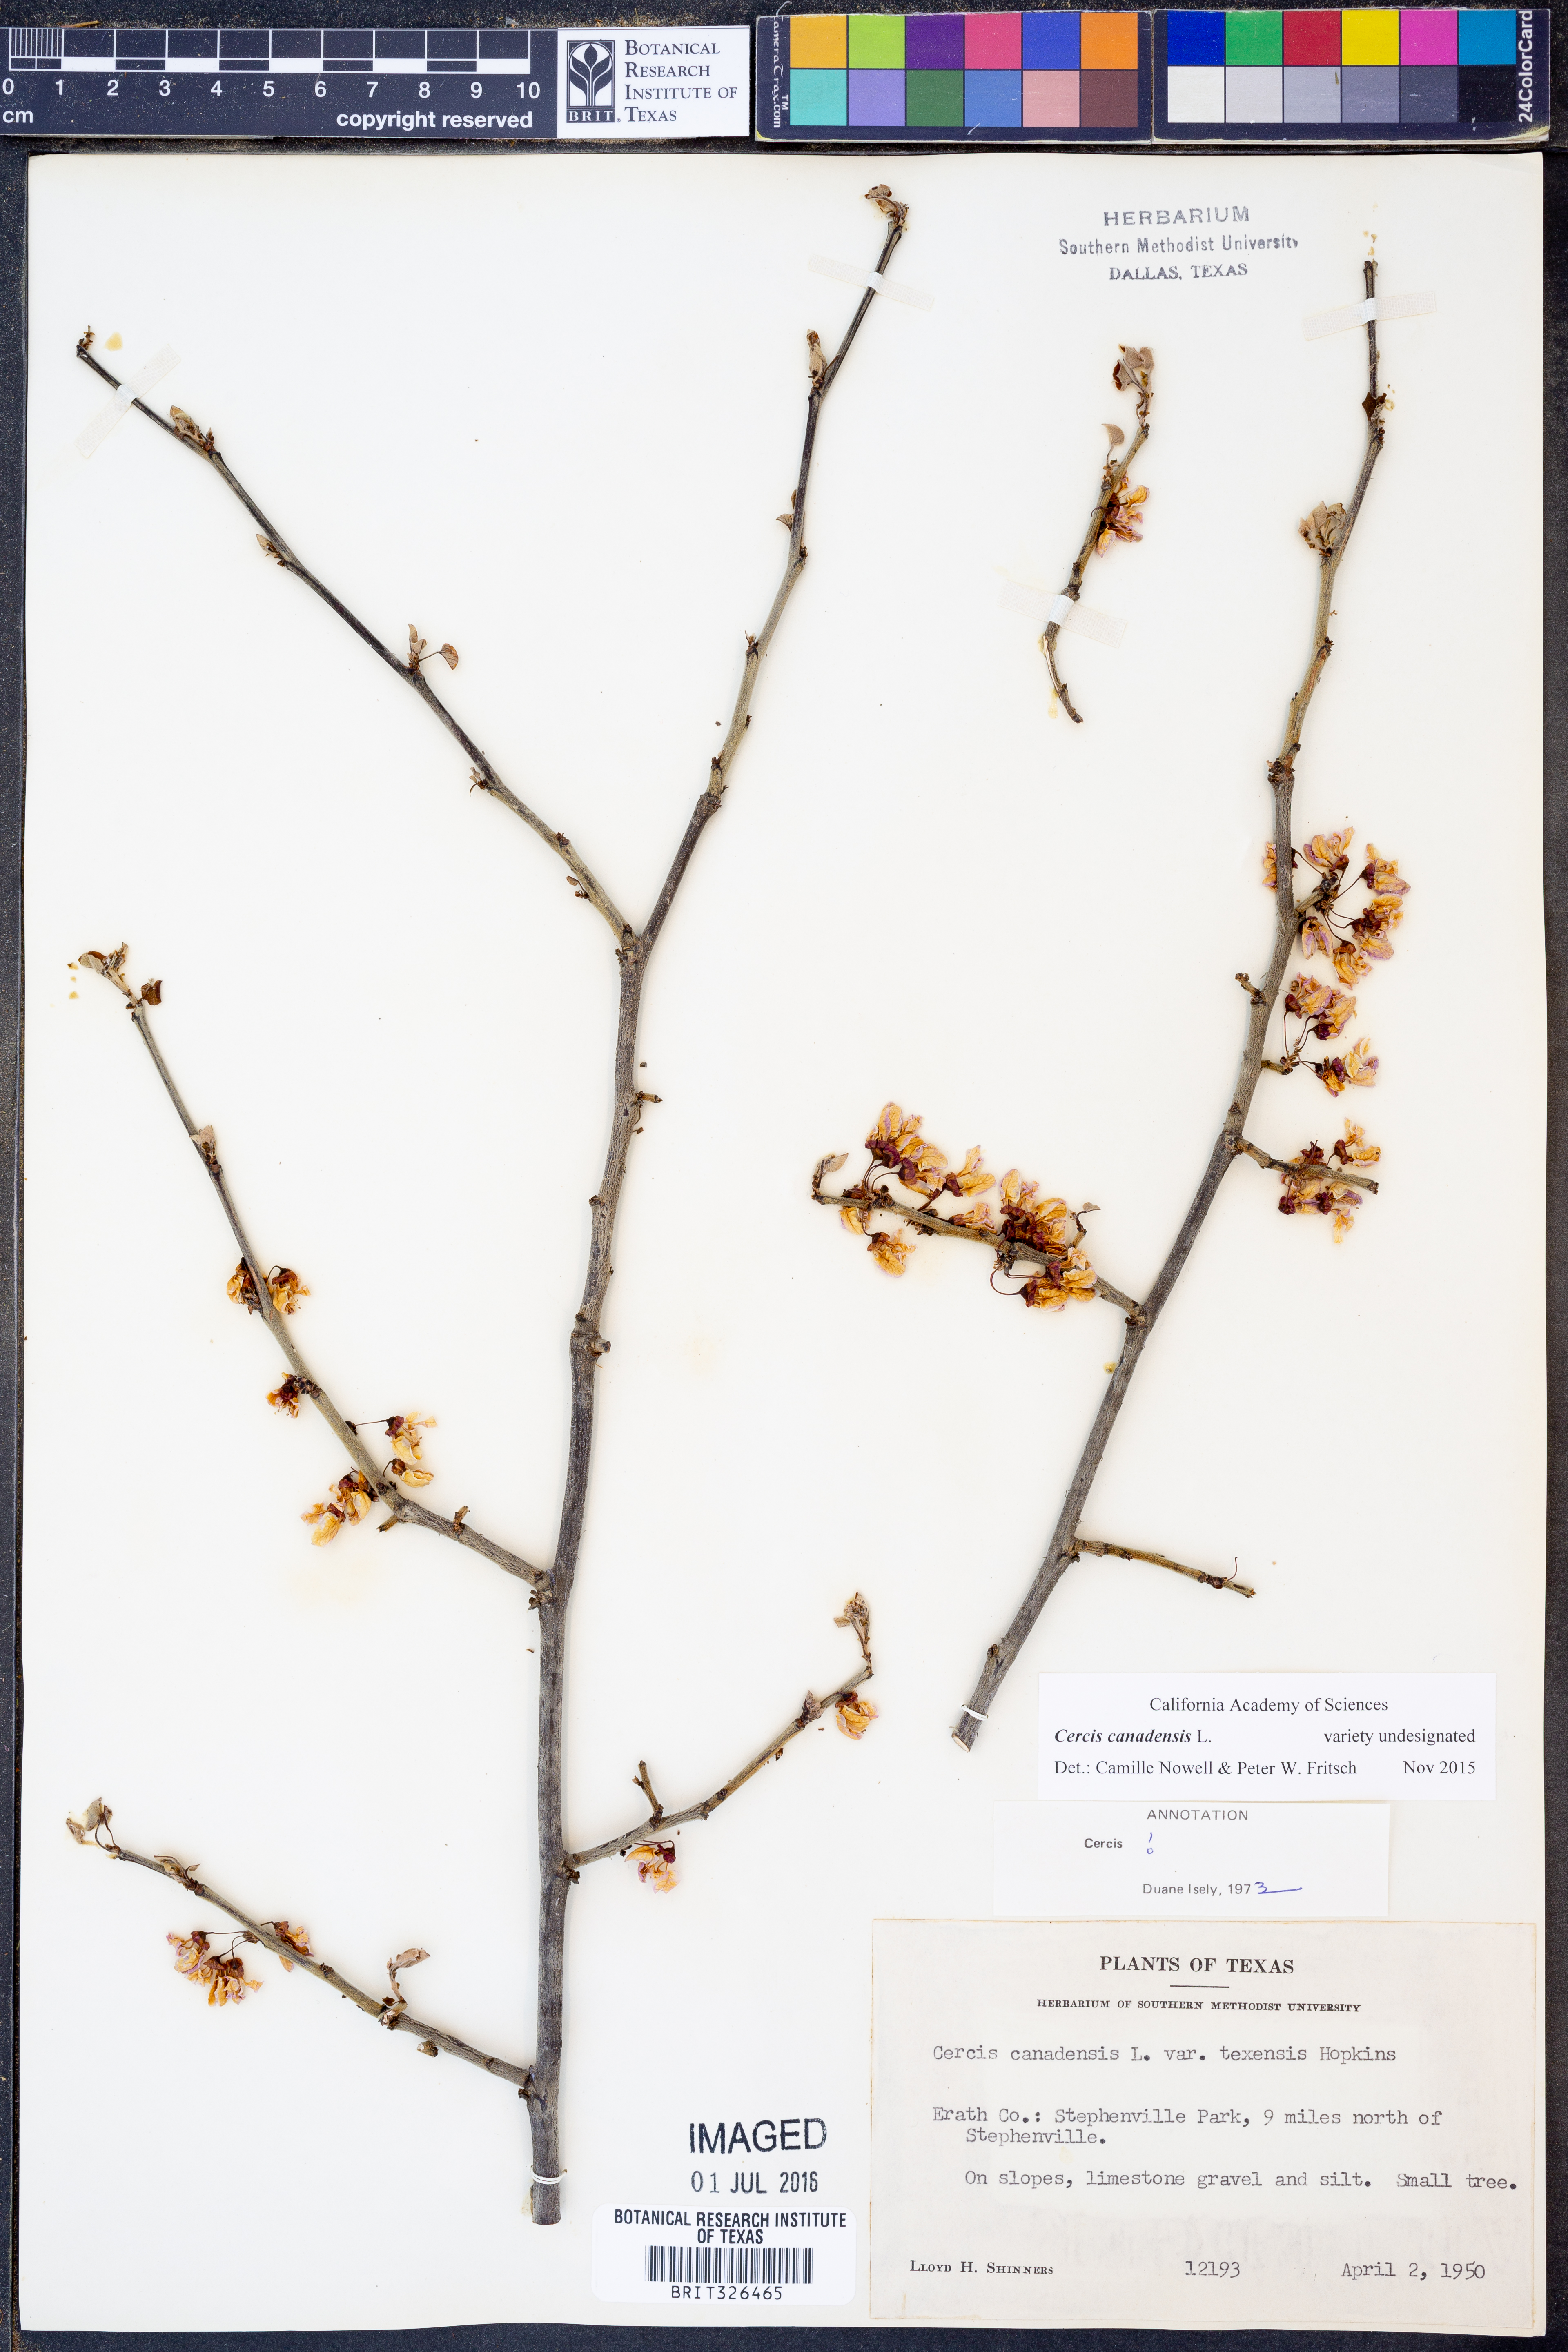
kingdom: Plantae
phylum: Tracheophyta
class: Magnoliopsida
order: Fabales
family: Fabaceae
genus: Cercis
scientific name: Cercis canadensis
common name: Eastern redbud
